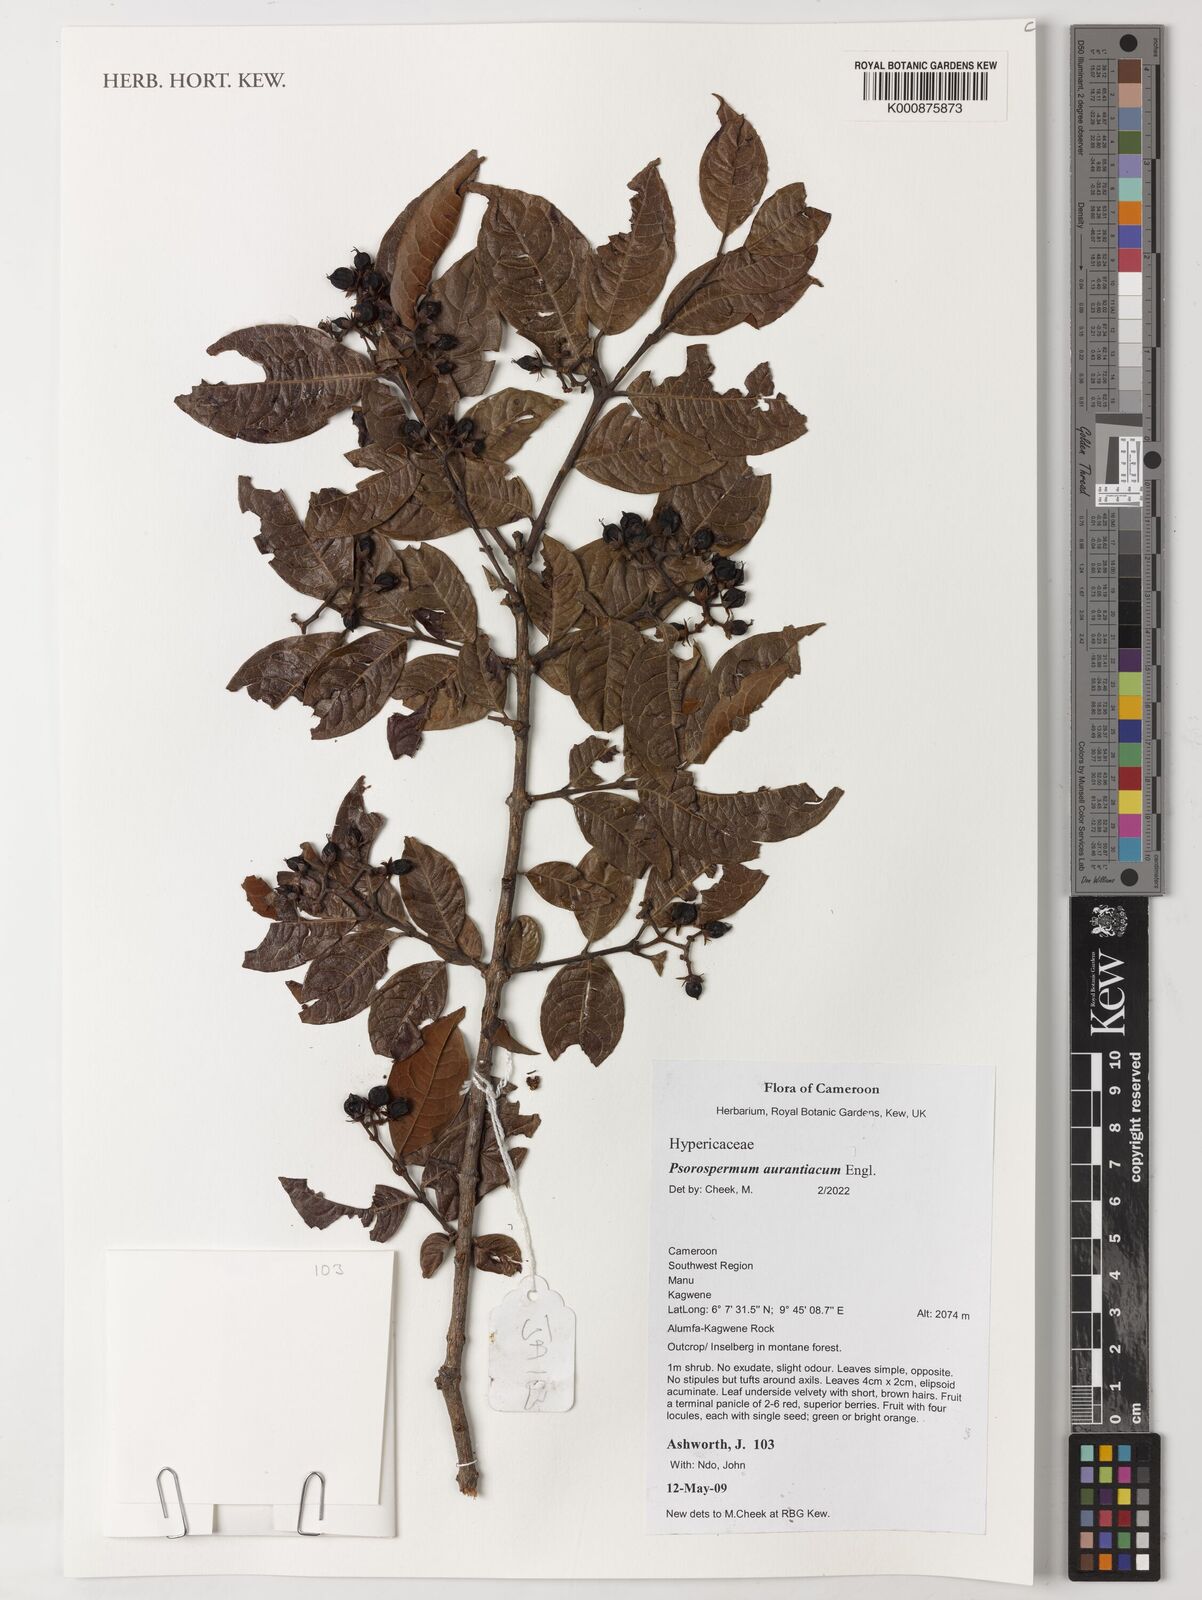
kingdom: Plantae
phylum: Tracheophyta
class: Magnoliopsida
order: Malpighiales
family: Hypericaceae
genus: Psorospermum
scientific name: Psorospermum aurantiacum
